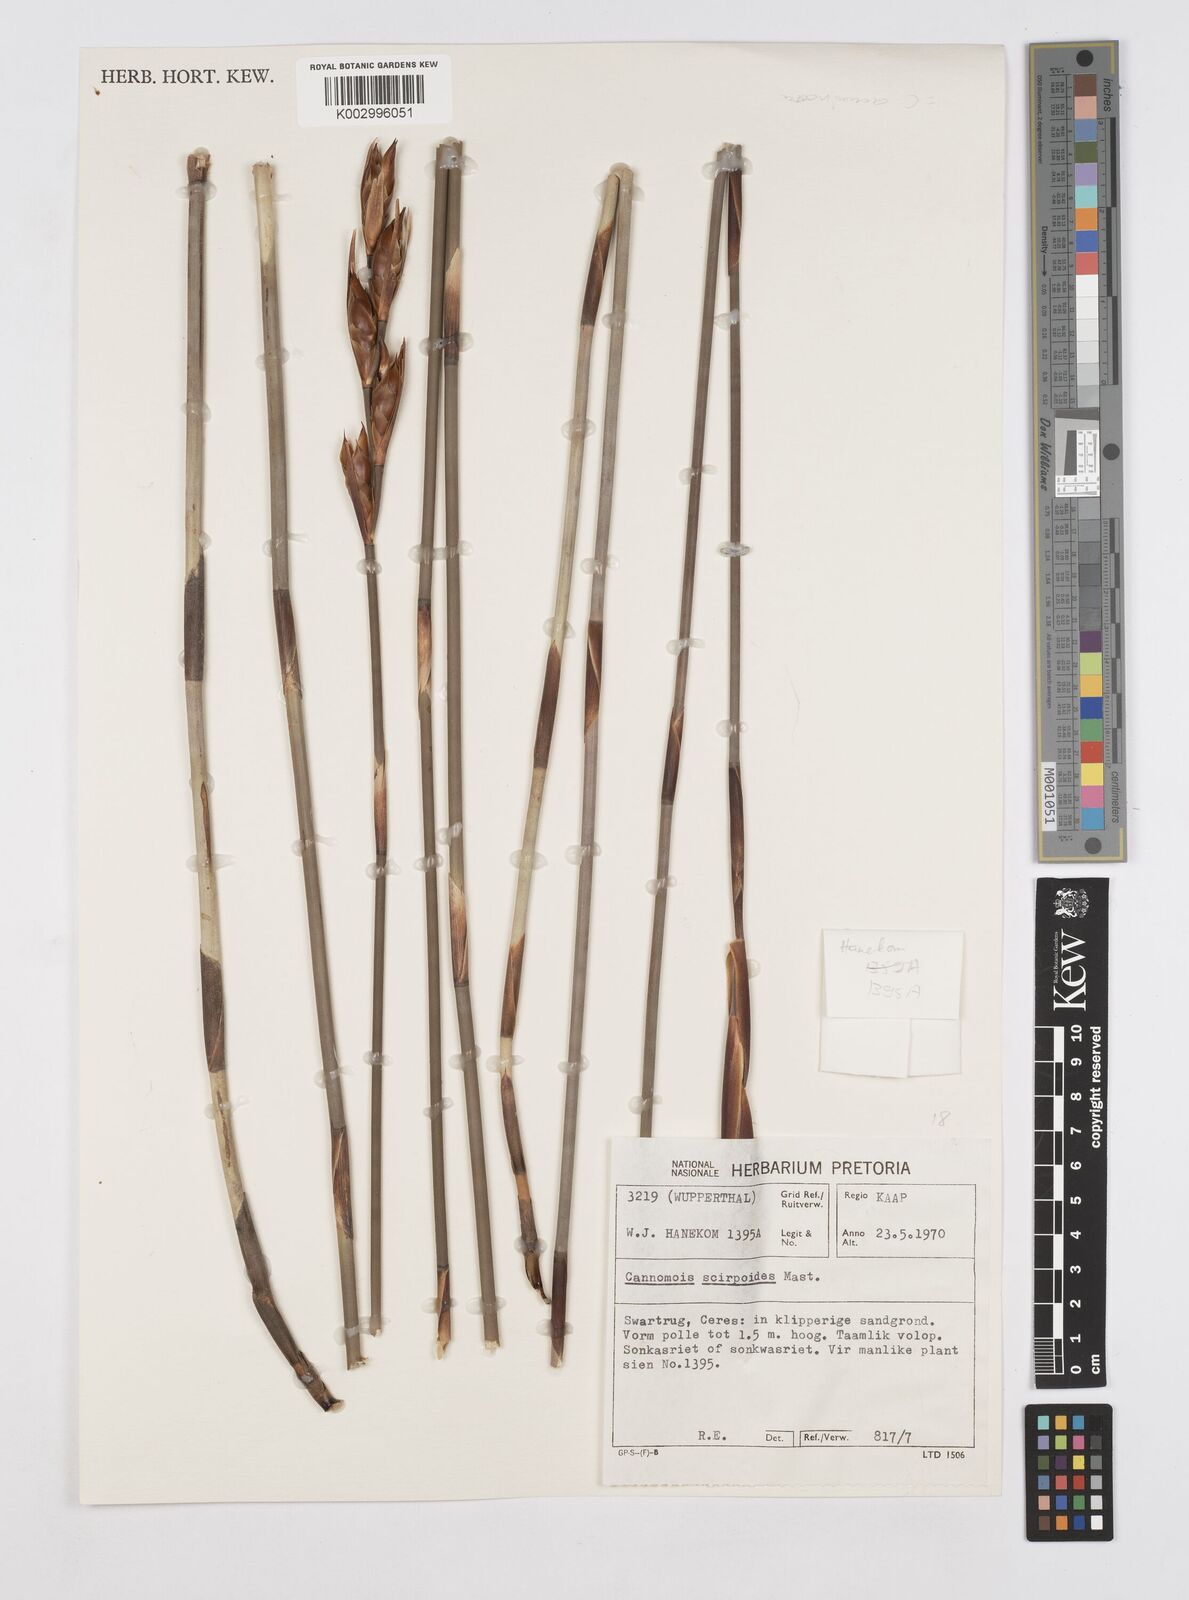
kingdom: Plantae
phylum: Tracheophyta
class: Liliopsida
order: Poales
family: Restionaceae
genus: Cannomois
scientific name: Cannomois parviflora
